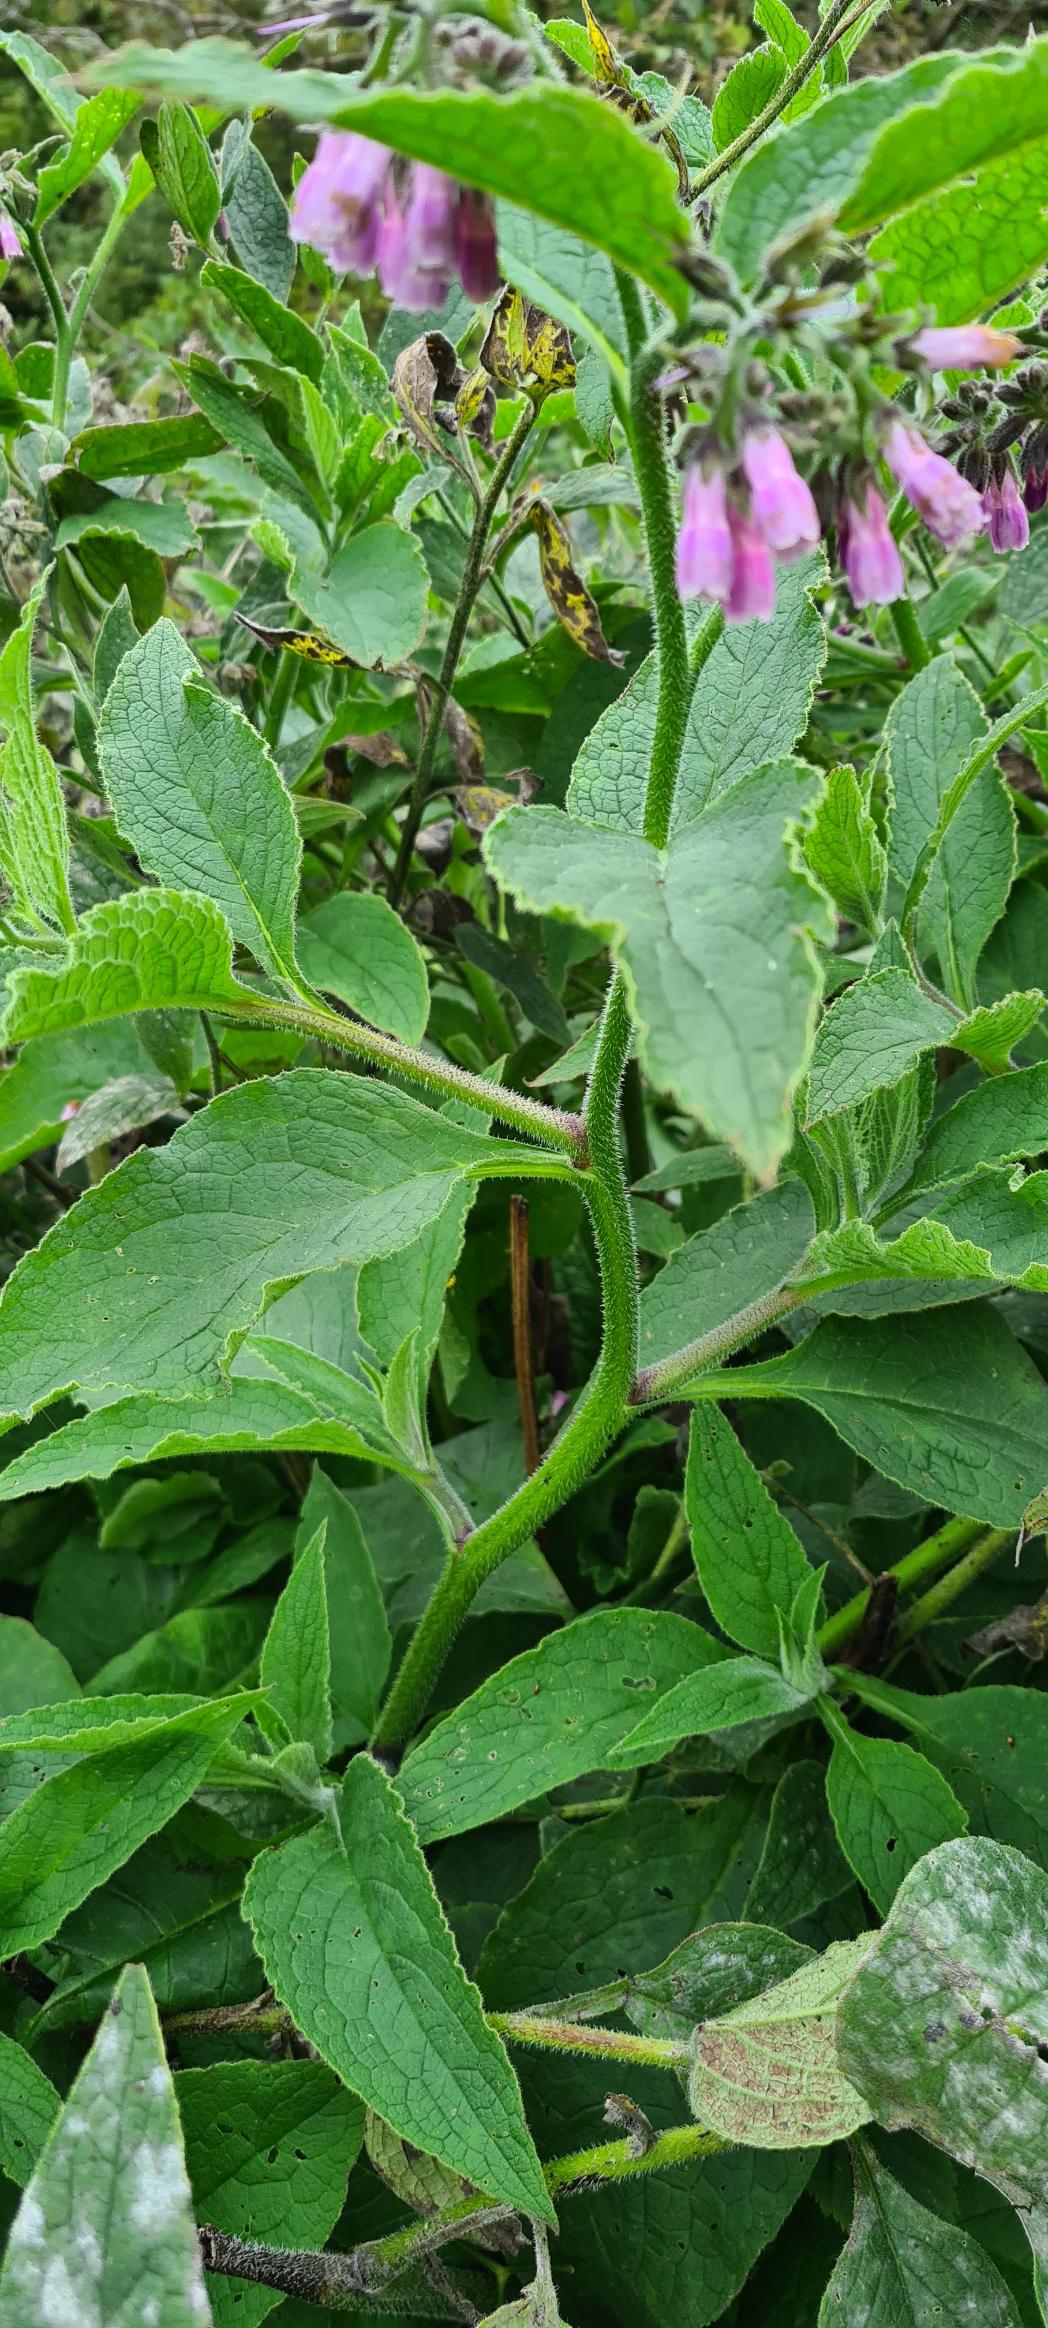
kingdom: Plantae
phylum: Tracheophyta
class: Magnoliopsida
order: Boraginales
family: Boraginaceae
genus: Symphytum
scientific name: Symphytum uplandicum
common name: Foder-kulsukker
